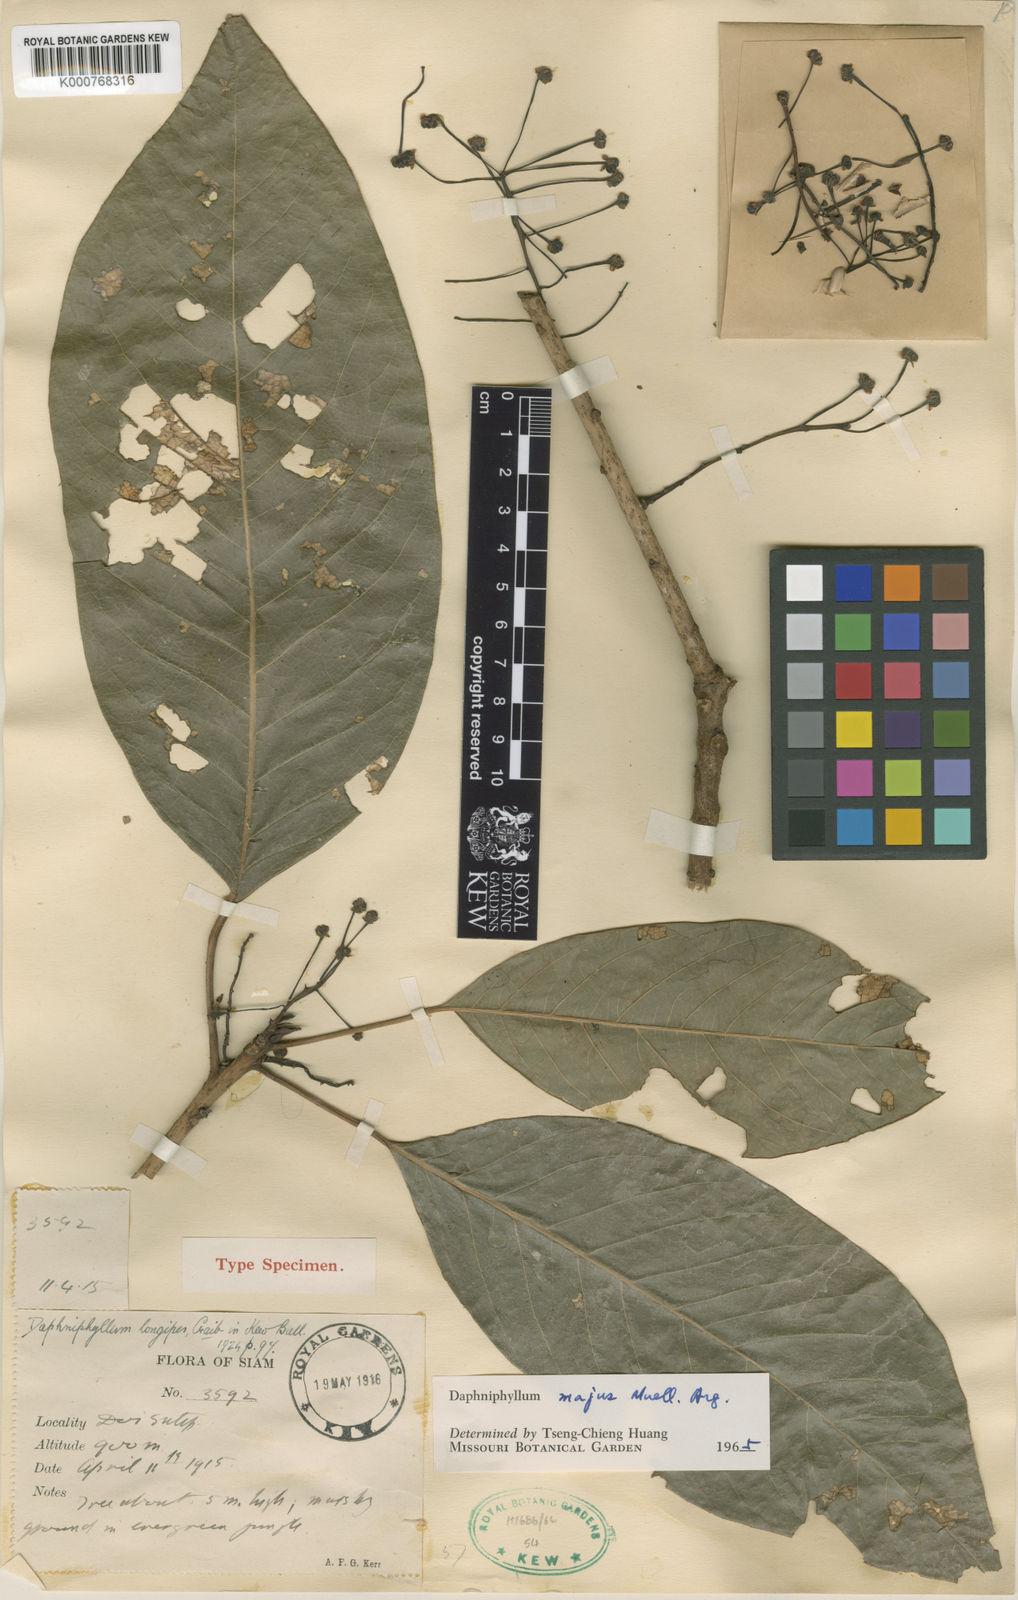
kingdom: Plantae
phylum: Tracheophyta
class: Magnoliopsida
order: Saxifragales
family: Daphniphyllaceae
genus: Daphniphyllum
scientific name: Daphniphyllum
